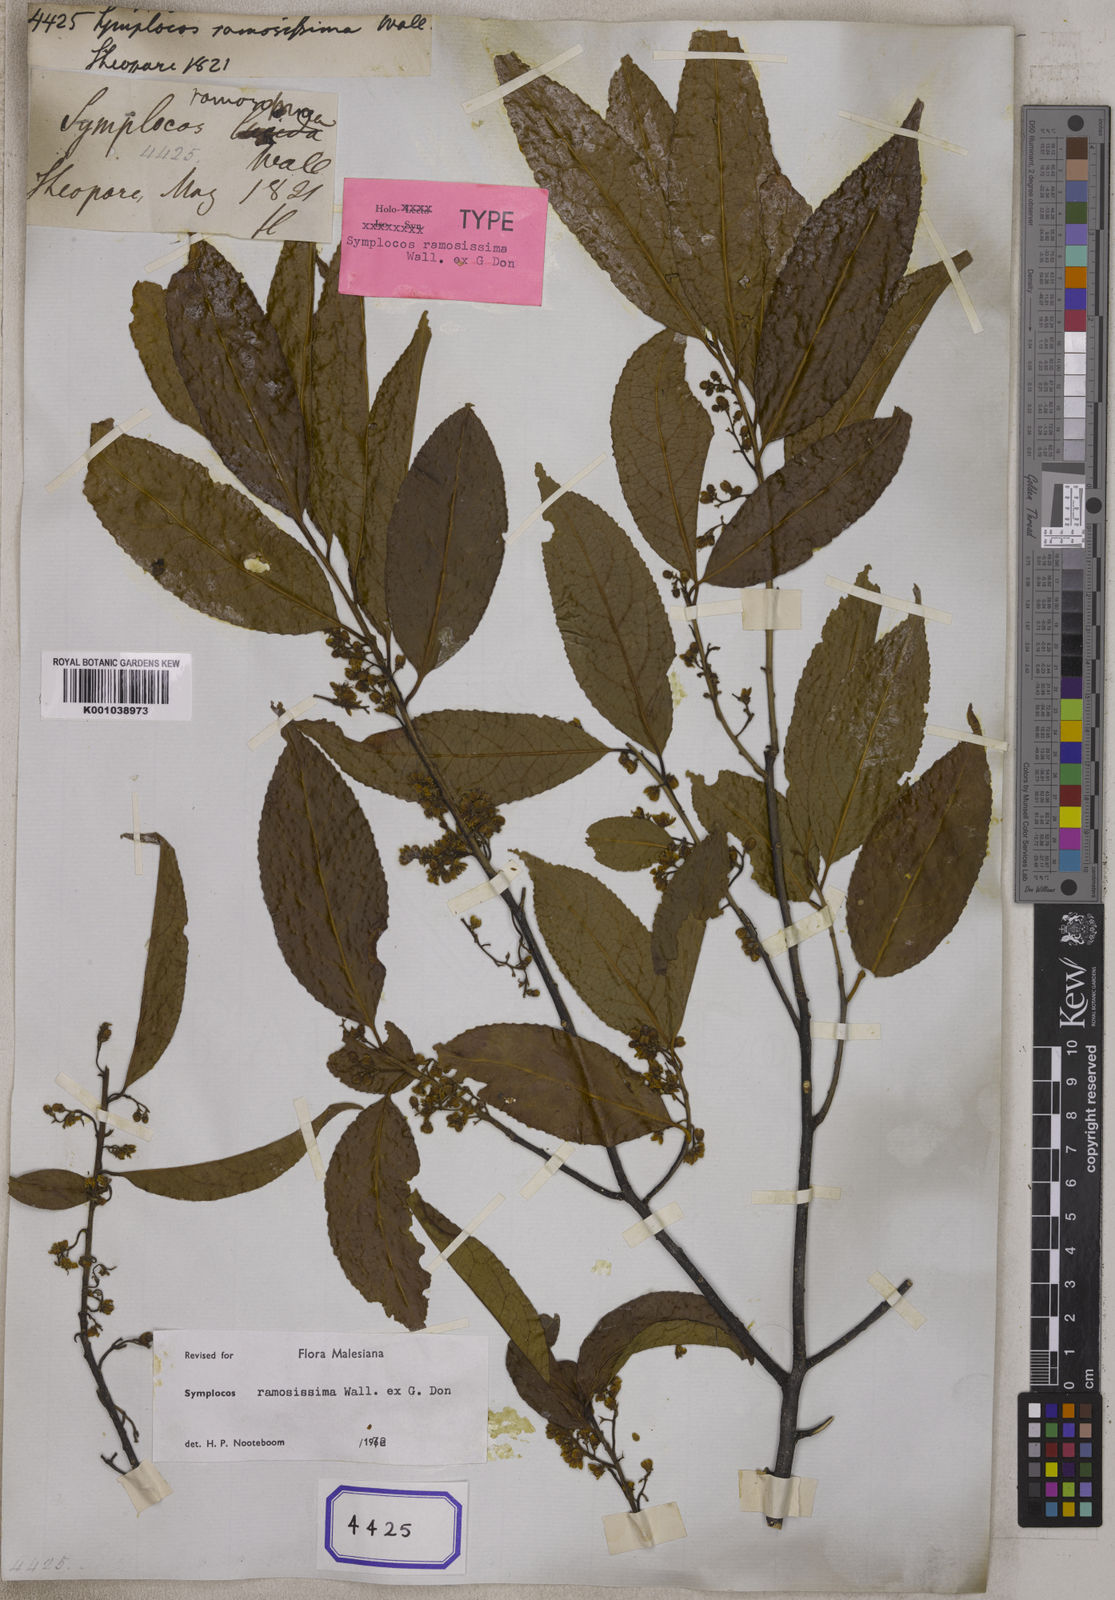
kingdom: Plantae
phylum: Tracheophyta
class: Magnoliopsida
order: Ericales
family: Symplocaceae
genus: Symplocos
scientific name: Symplocos
